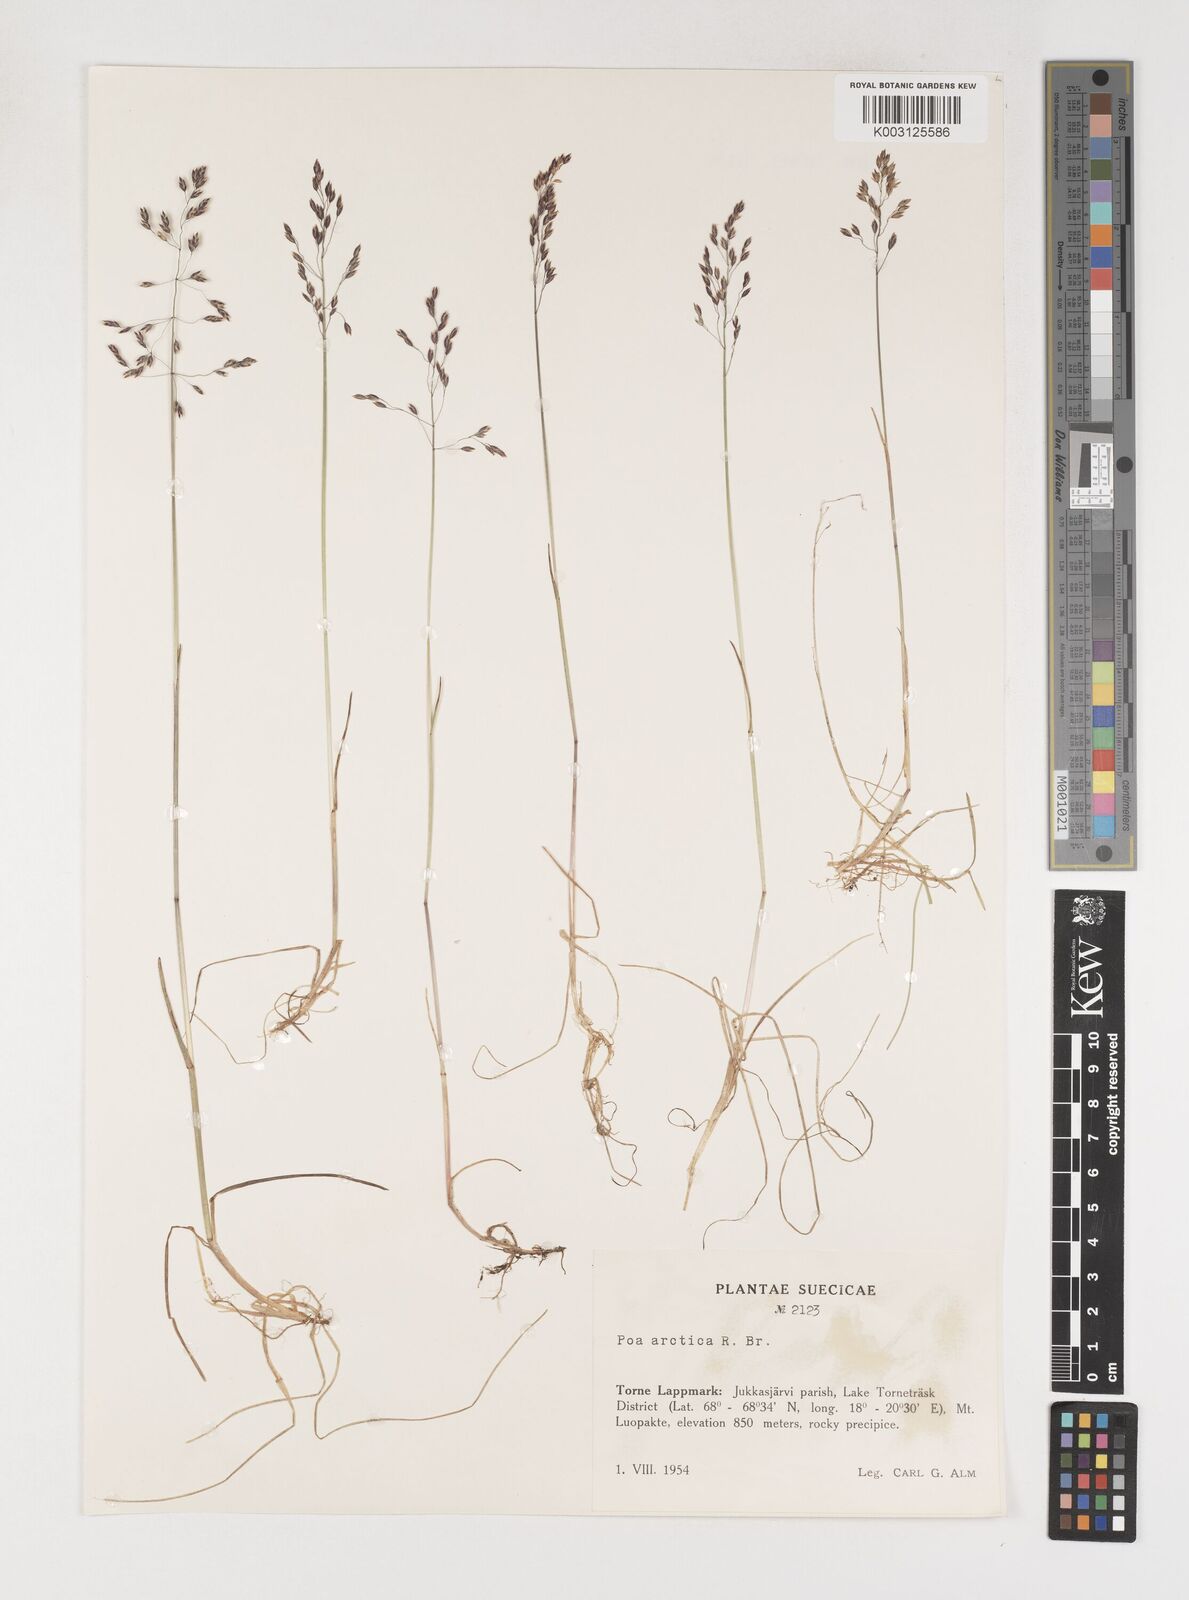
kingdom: Plantae
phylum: Tracheophyta
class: Liliopsida
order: Poales
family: Poaceae
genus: Poa
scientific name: Poa arctica
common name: Arctic bluegrass
